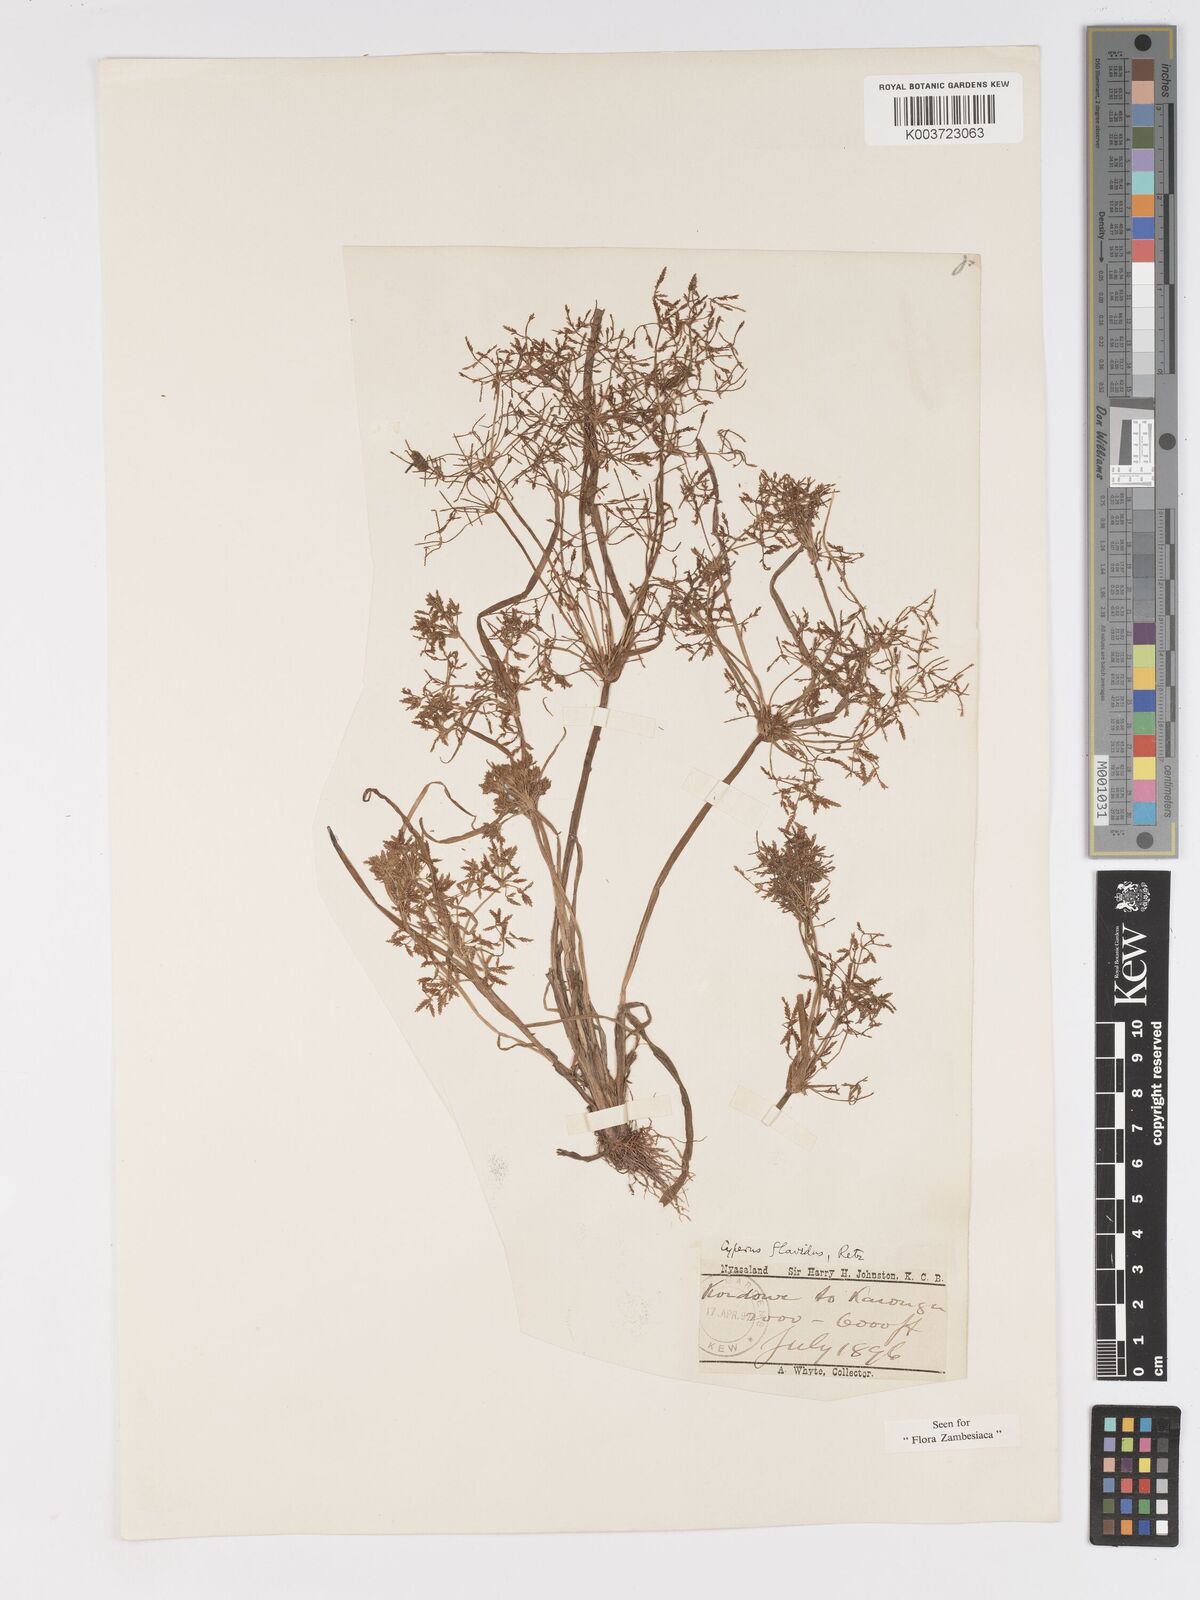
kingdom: Plantae
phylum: Tracheophyta
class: Liliopsida
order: Poales
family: Cyperaceae
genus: Cyperus
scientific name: Cyperus tenuispica
